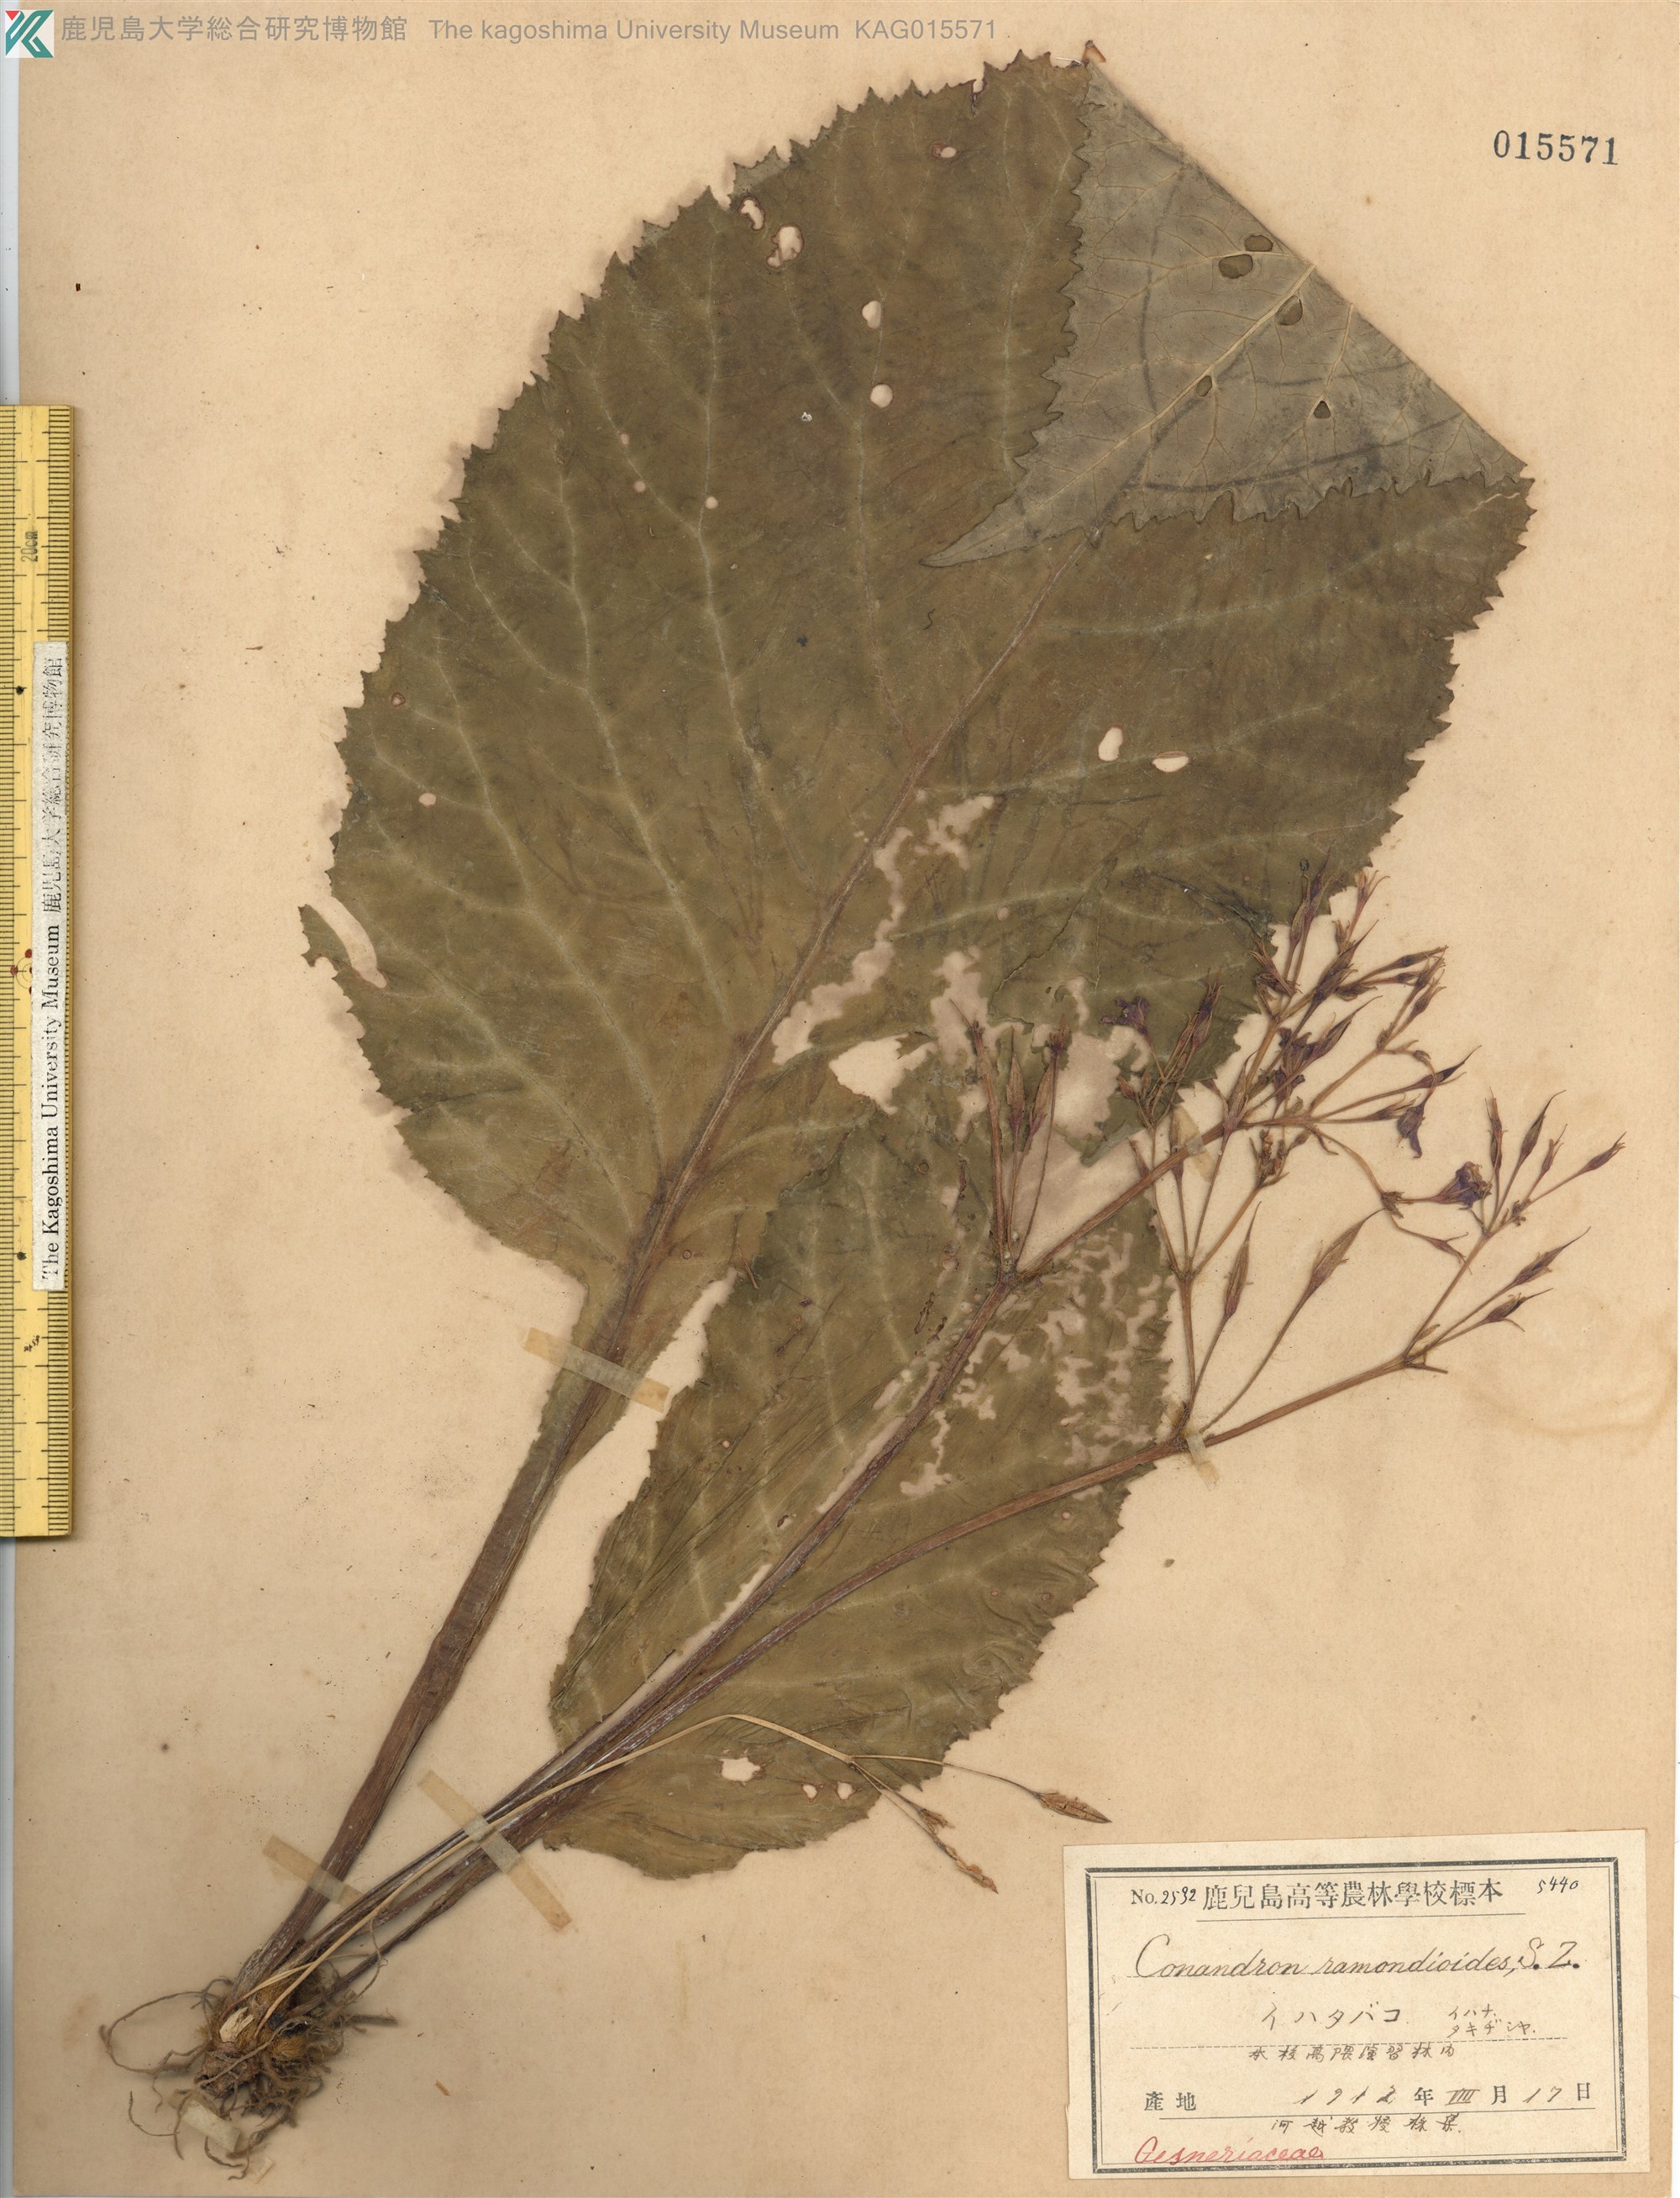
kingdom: Plantae
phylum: Tracheophyta
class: Magnoliopsida
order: Lamiales
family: Gesneriaceae
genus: Conandron
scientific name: Conandron ramondioides
